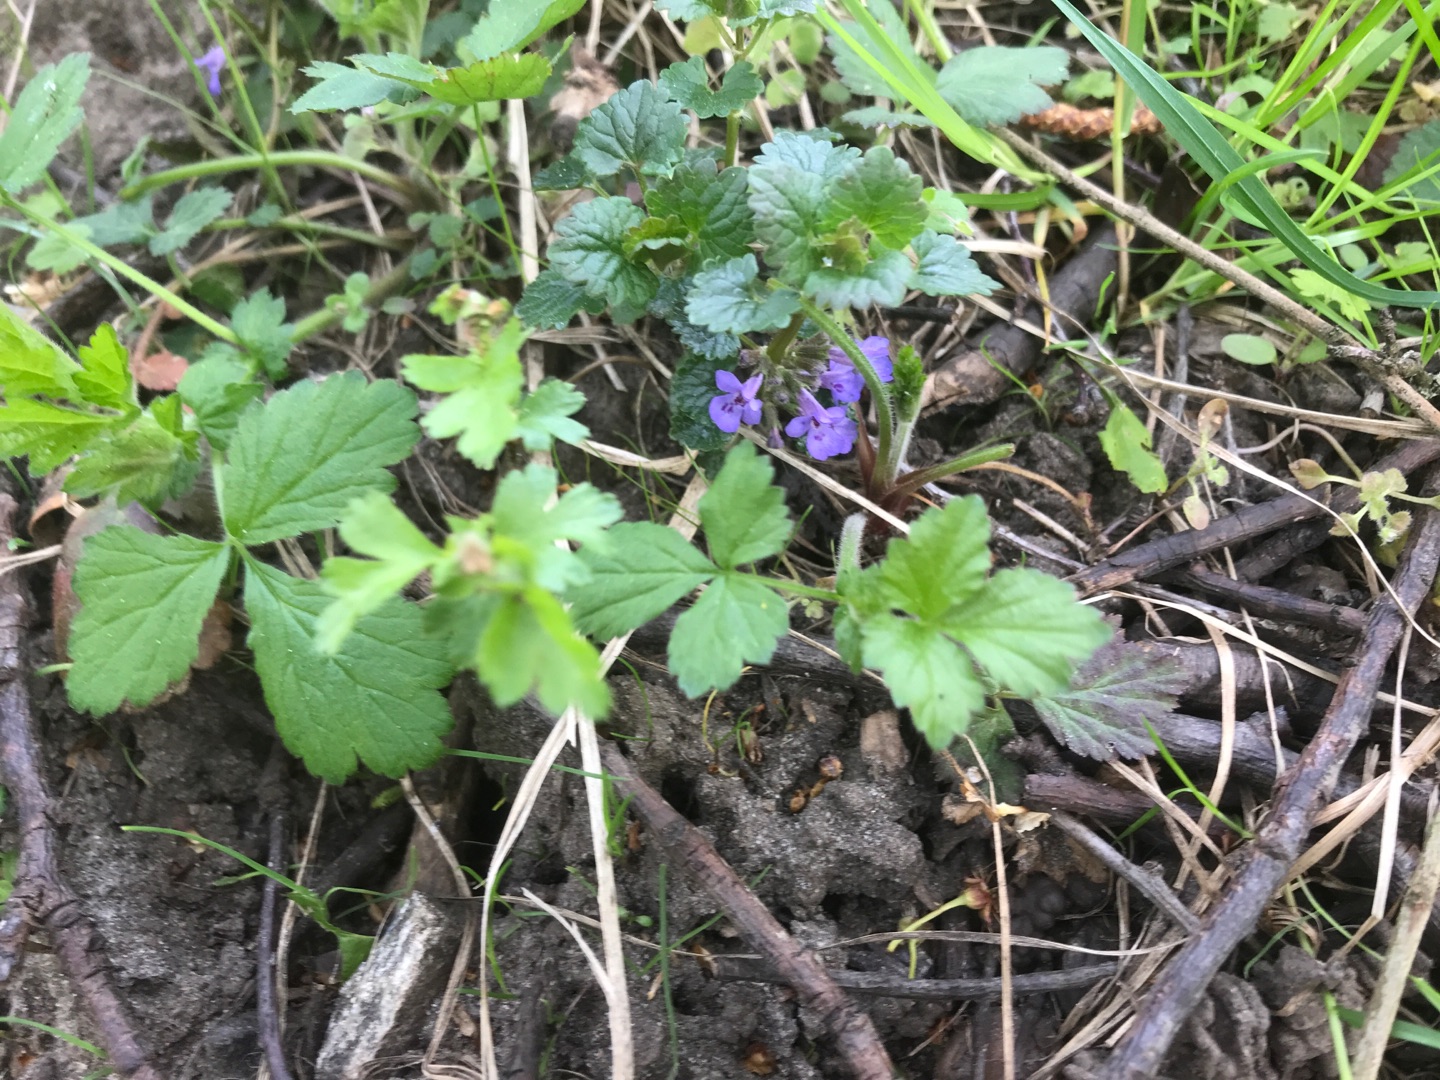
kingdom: Plantae
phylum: Tracheophyta
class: Magnoliopsida
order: Lamiales
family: Lamiaceae
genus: Glechoma
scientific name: Glechoma hederacea
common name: Korsknap
